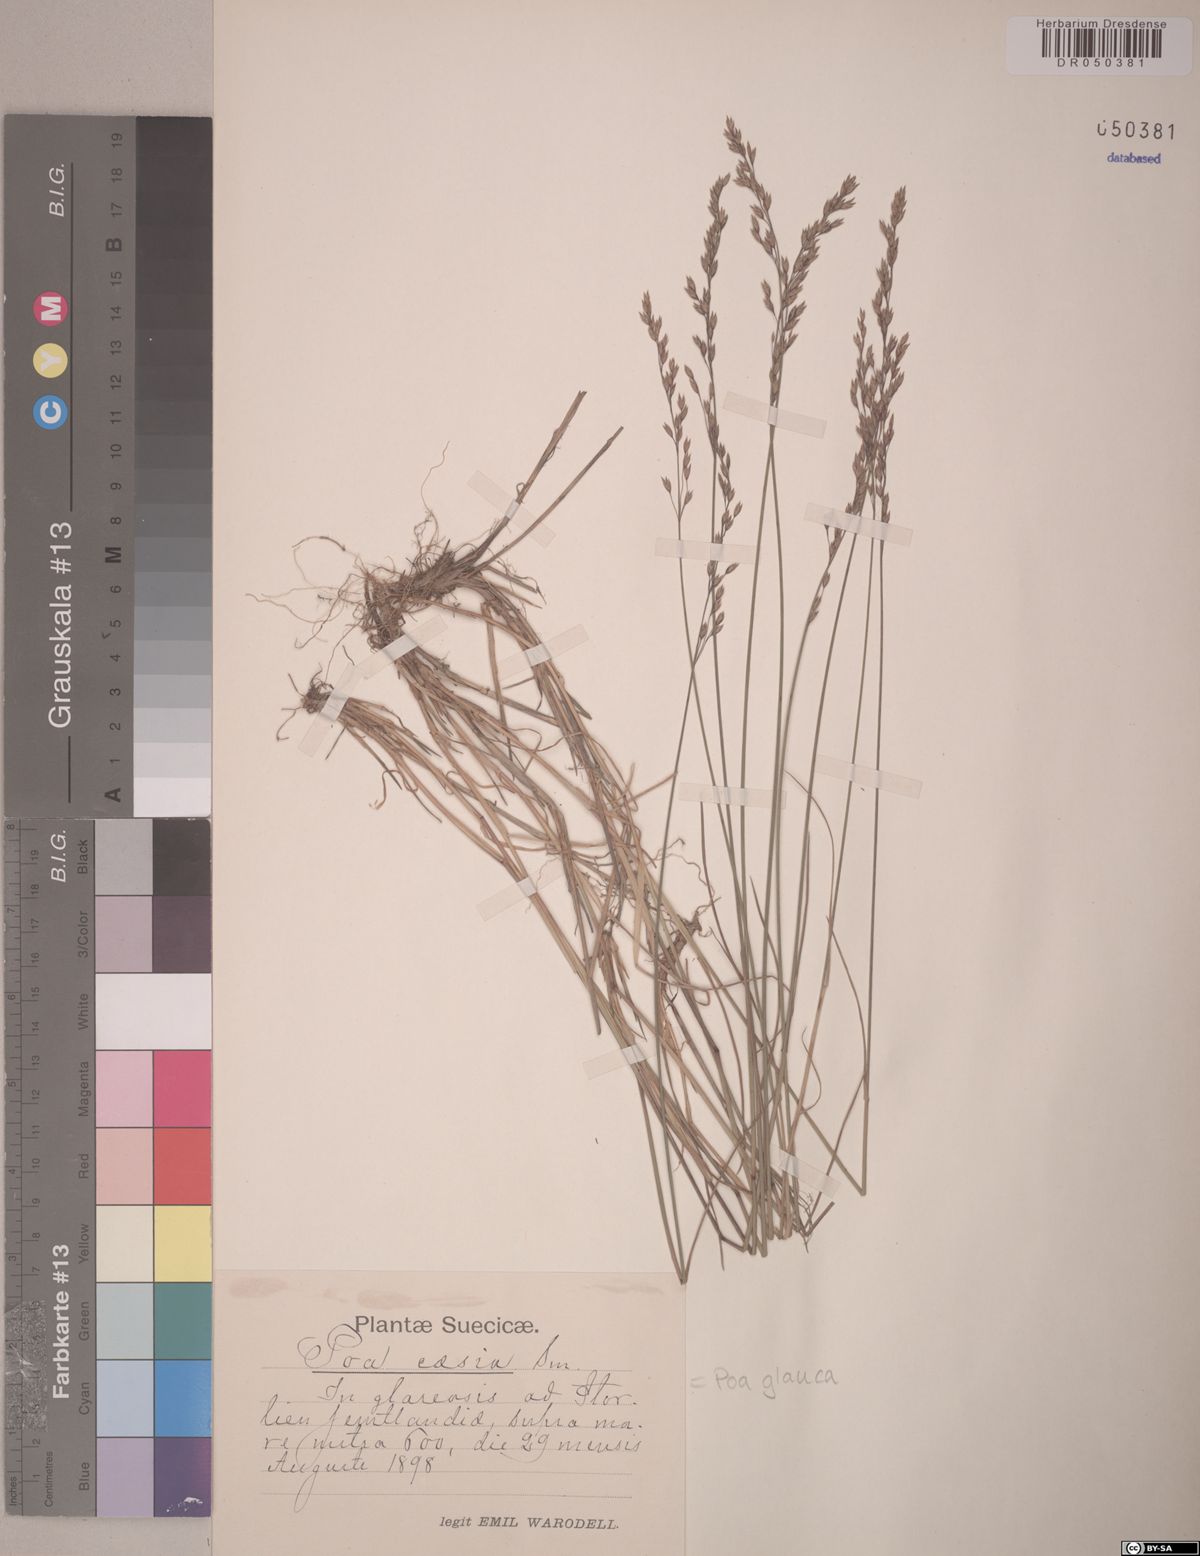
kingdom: Plantae
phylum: Tracheophyta
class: Liliopsida
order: Poales
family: Poaceae
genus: Poa
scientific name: Poa glauca
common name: Glaucous bluegrass
